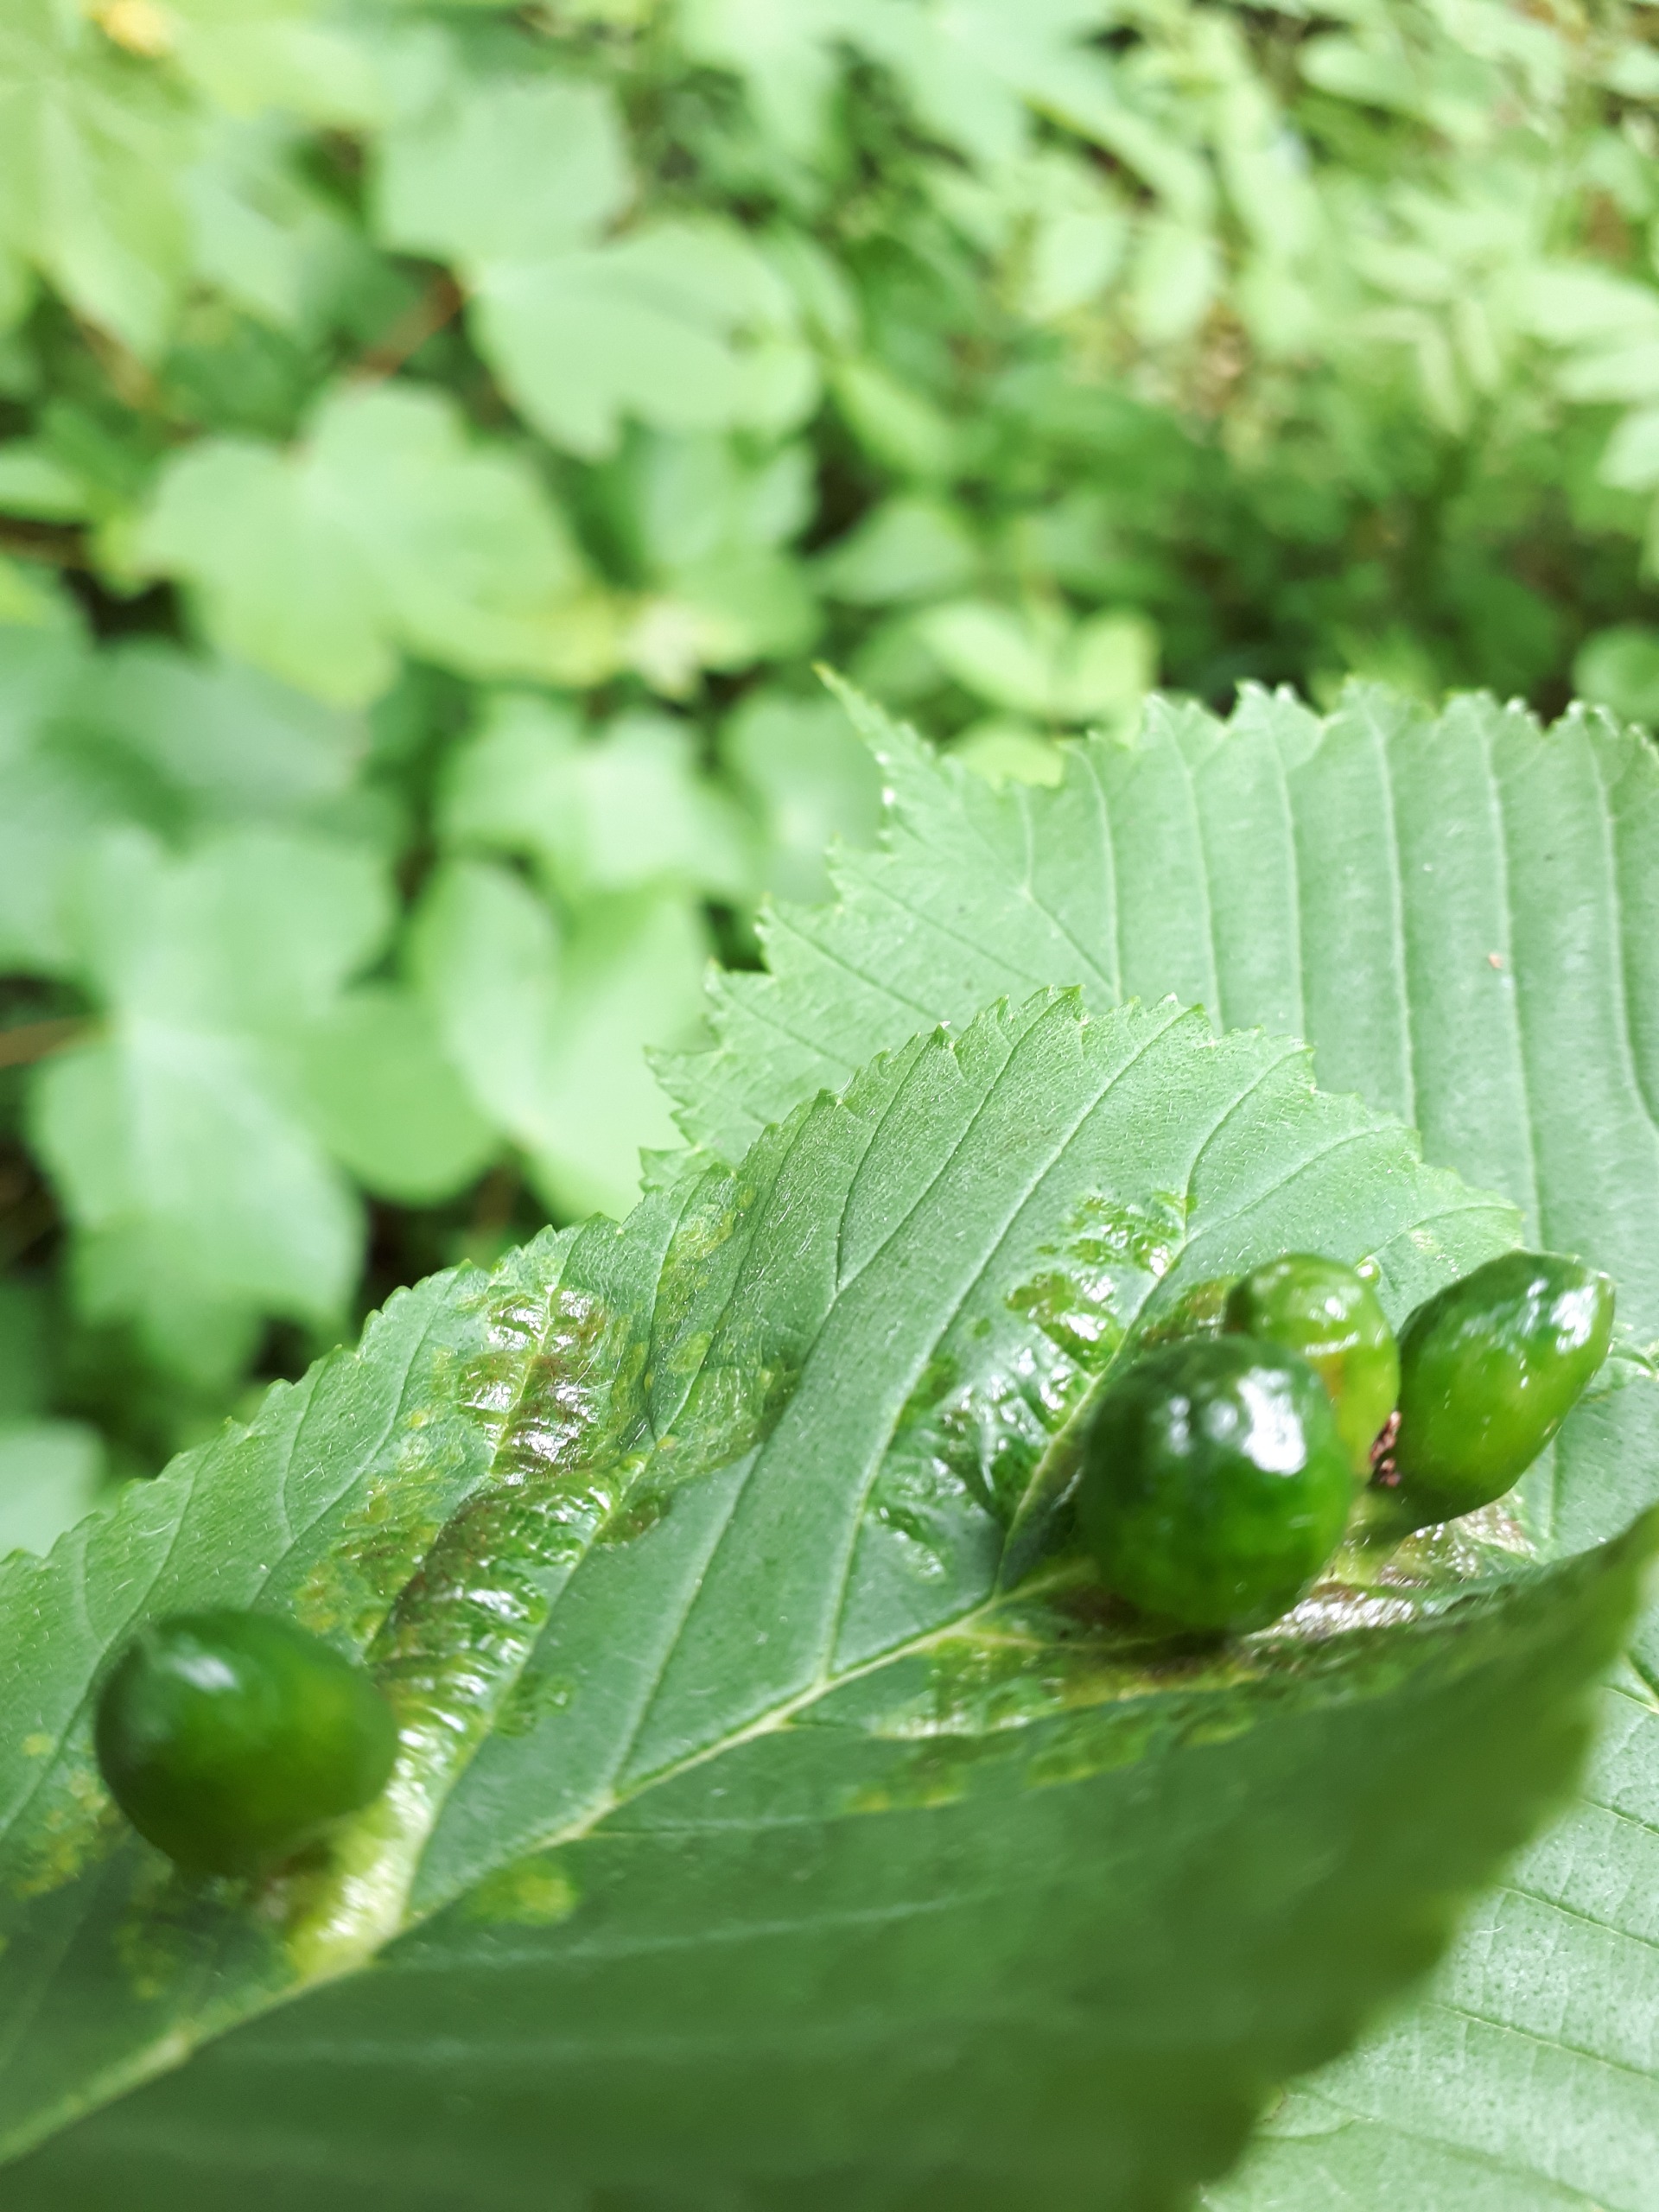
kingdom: Animalia
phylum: Arthropoda
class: Insecta
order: Hemiptera
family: Aphididae
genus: Tetraneura
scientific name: Tetraneura ulmi
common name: Elmegallelus
